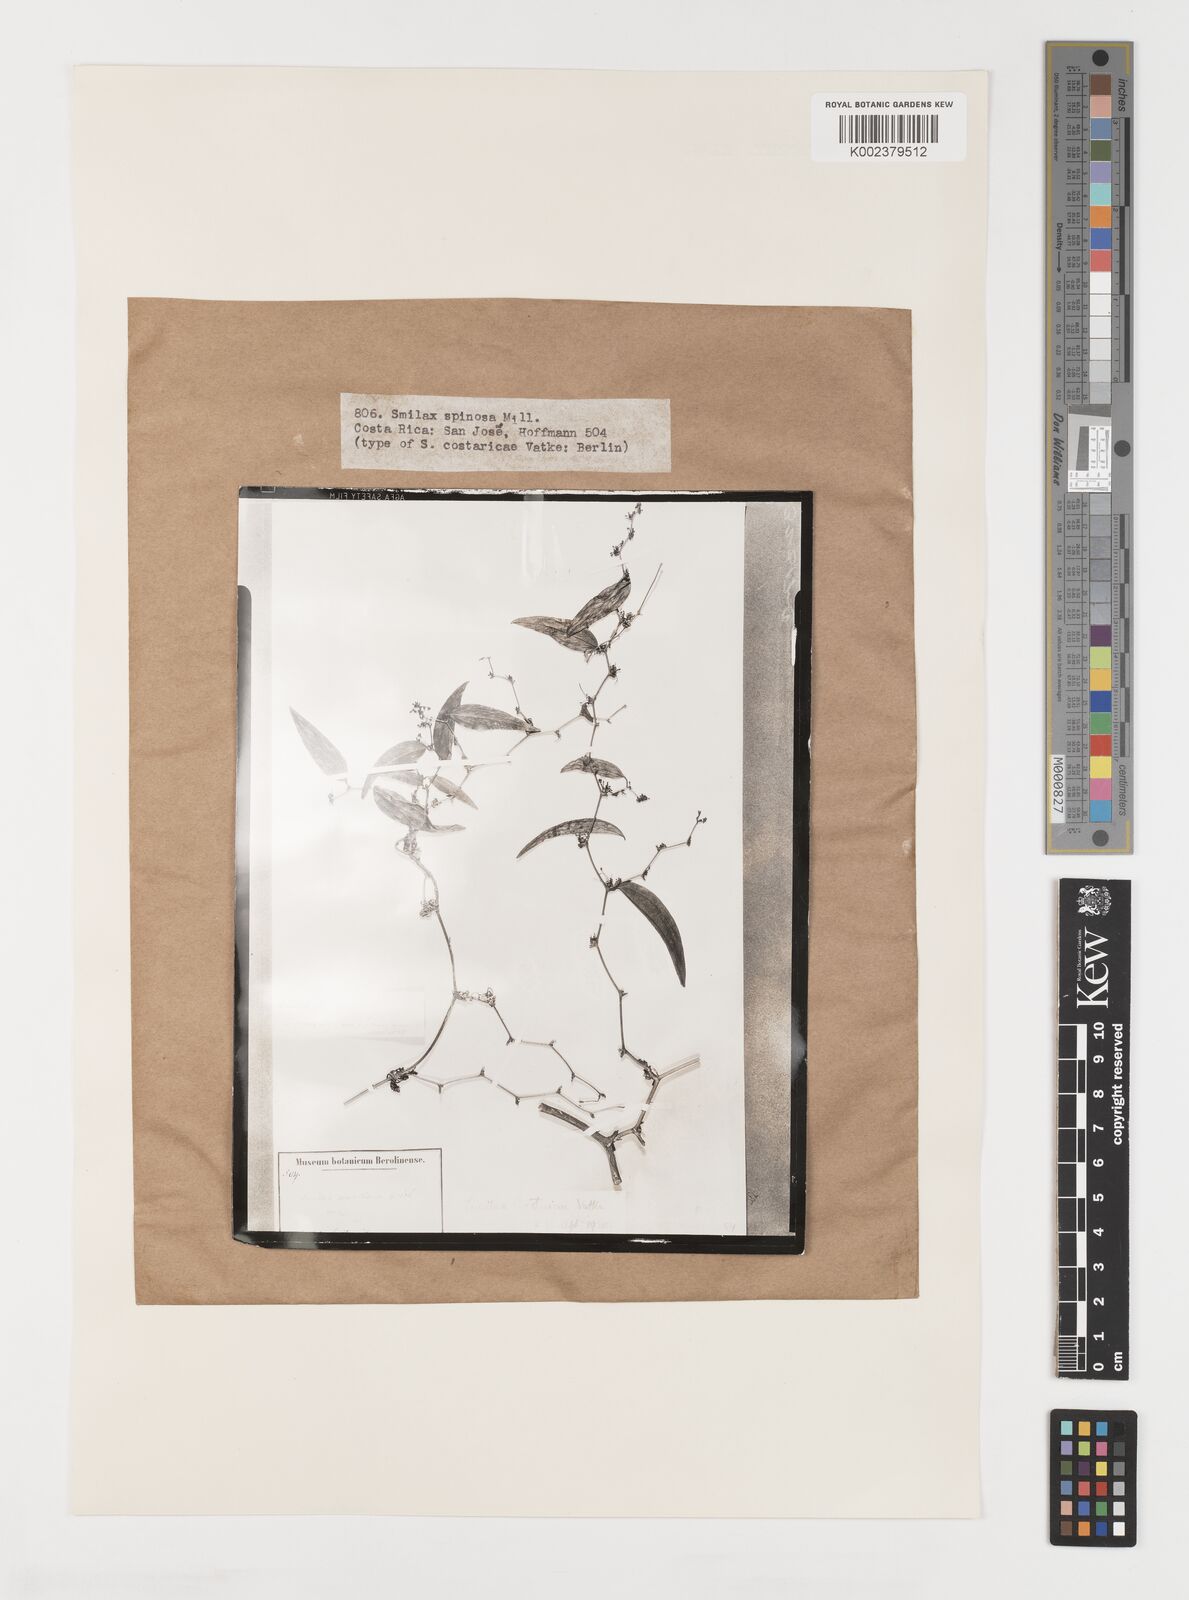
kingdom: Plantae
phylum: Tracheophyta
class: Liliopsida
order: Liliales
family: Smilacaceae
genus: Smilax
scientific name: Smilax spinosa
